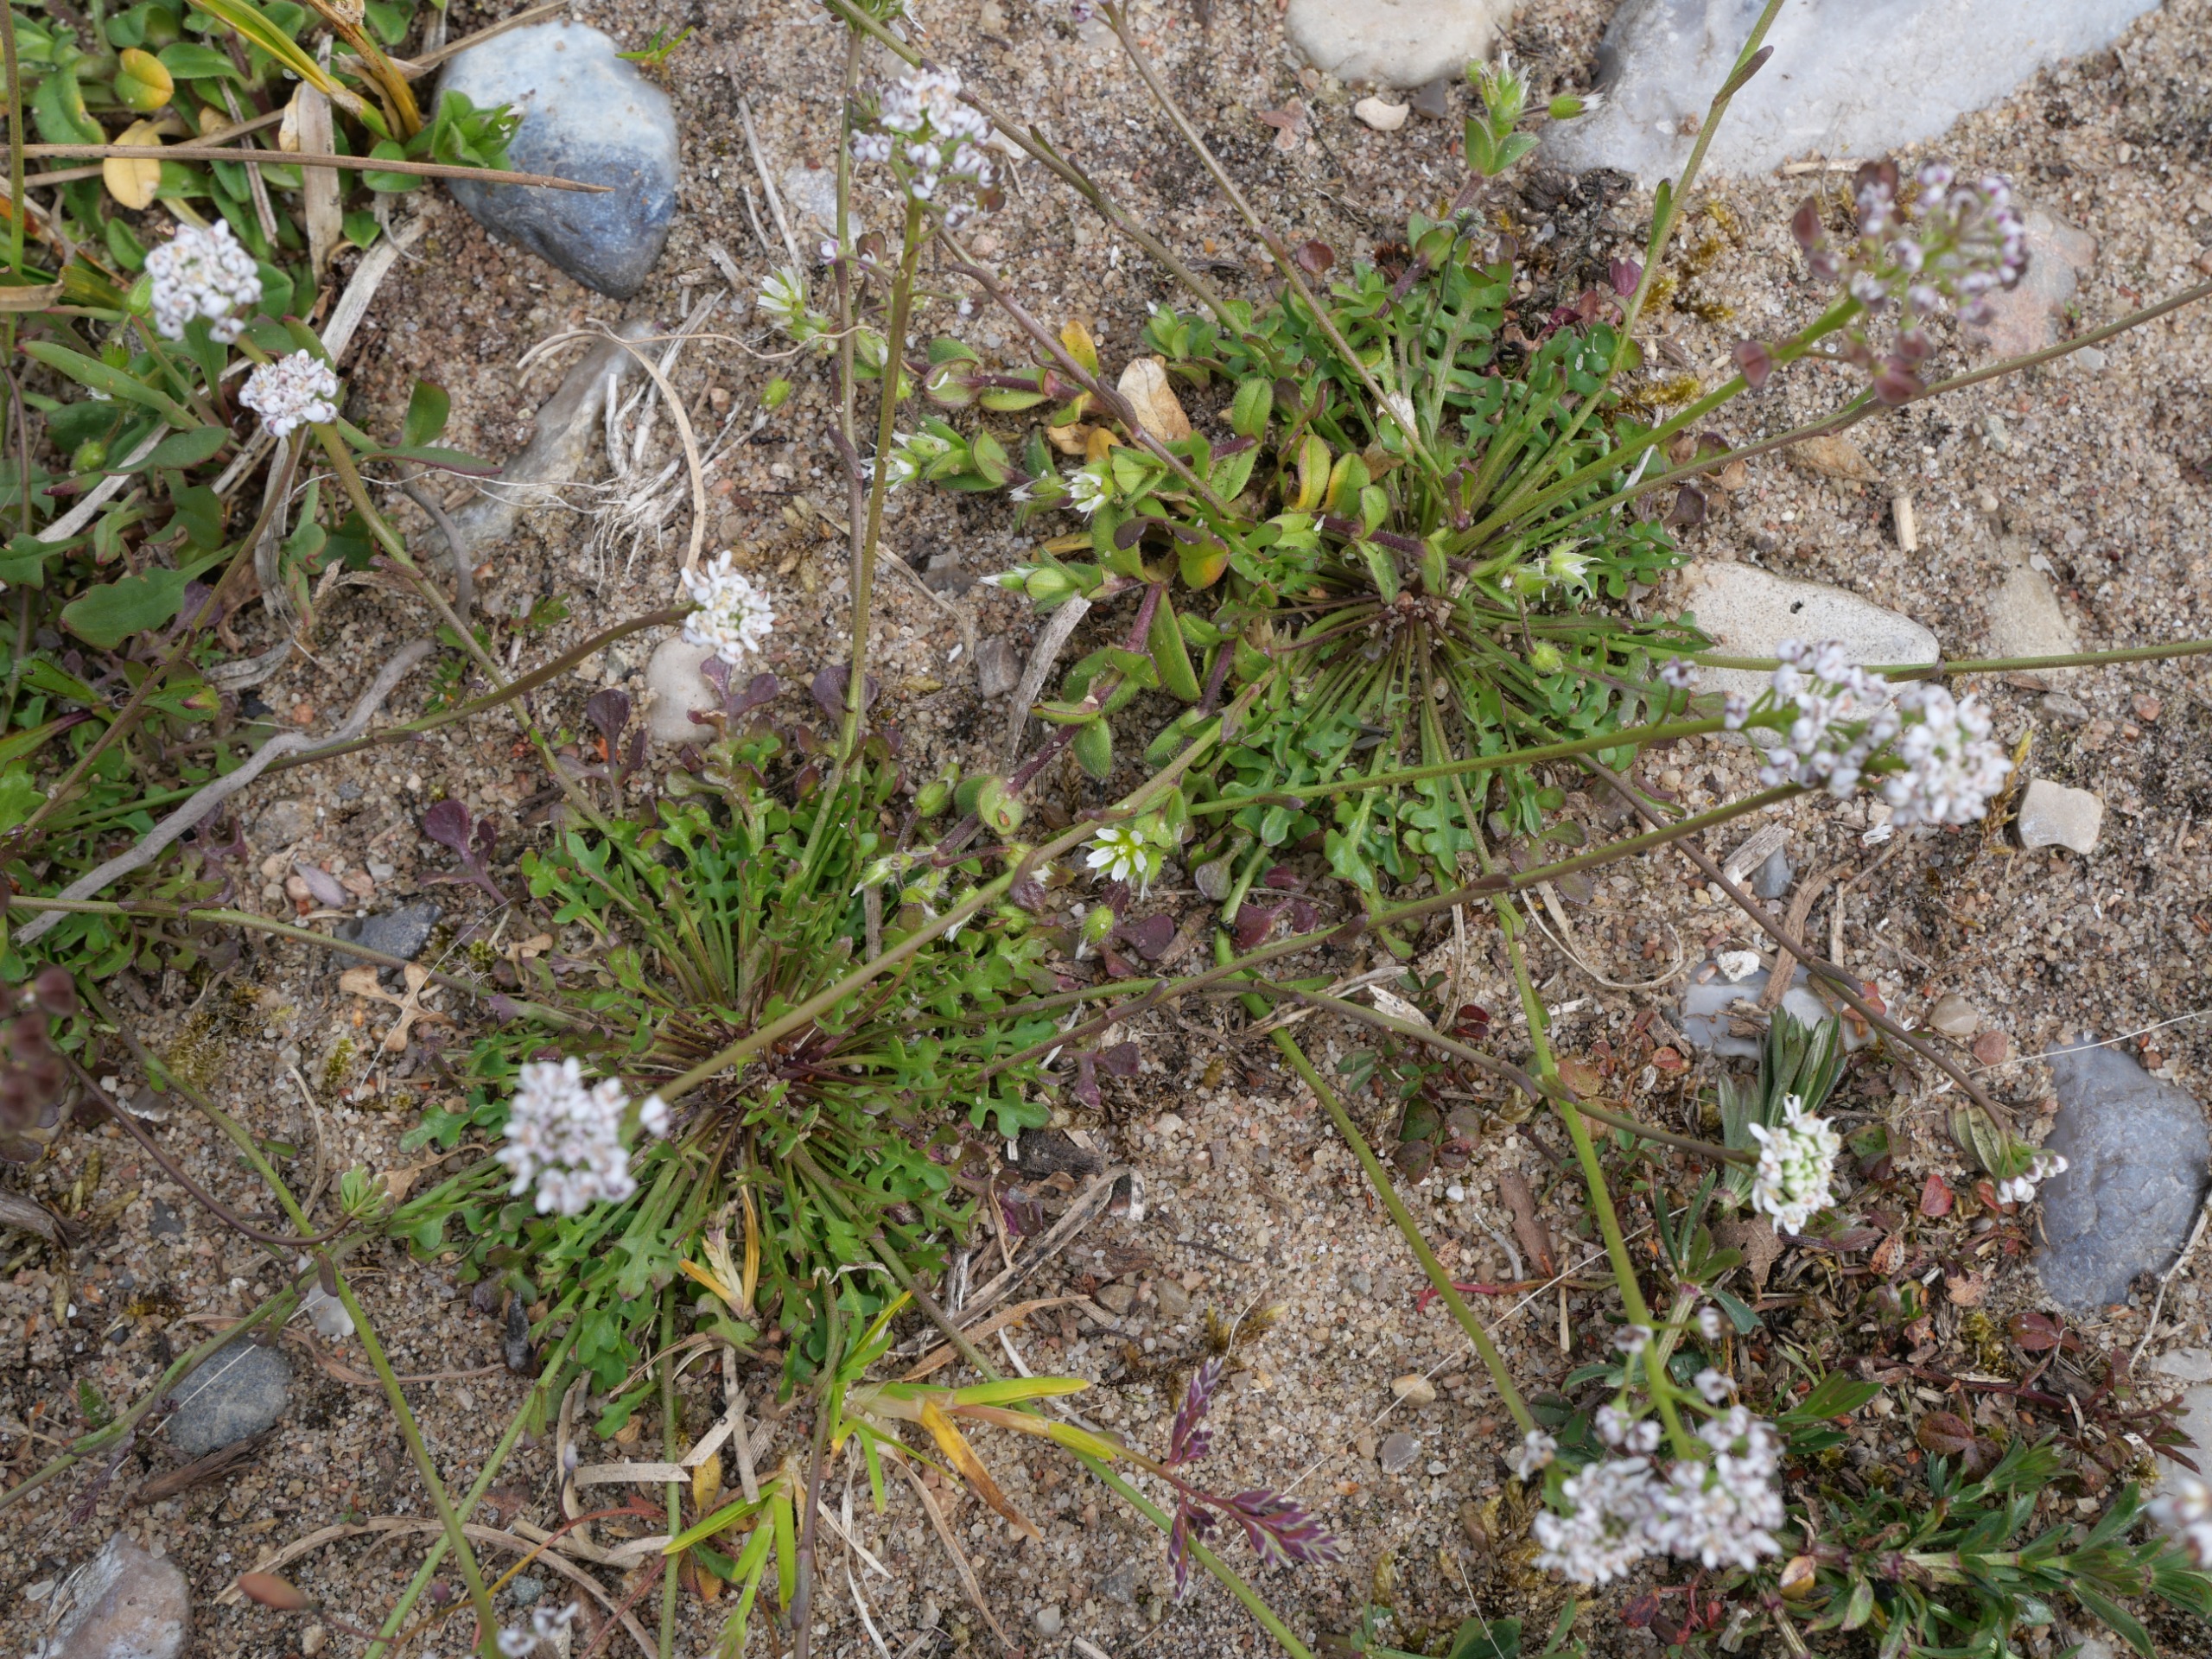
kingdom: Plantae
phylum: Tracheophyta
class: Magnoliopsida
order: Brassicales
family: Brassicaceae
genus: Teesdalia
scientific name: Teesdalia nudicaulis
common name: Flipkrave
